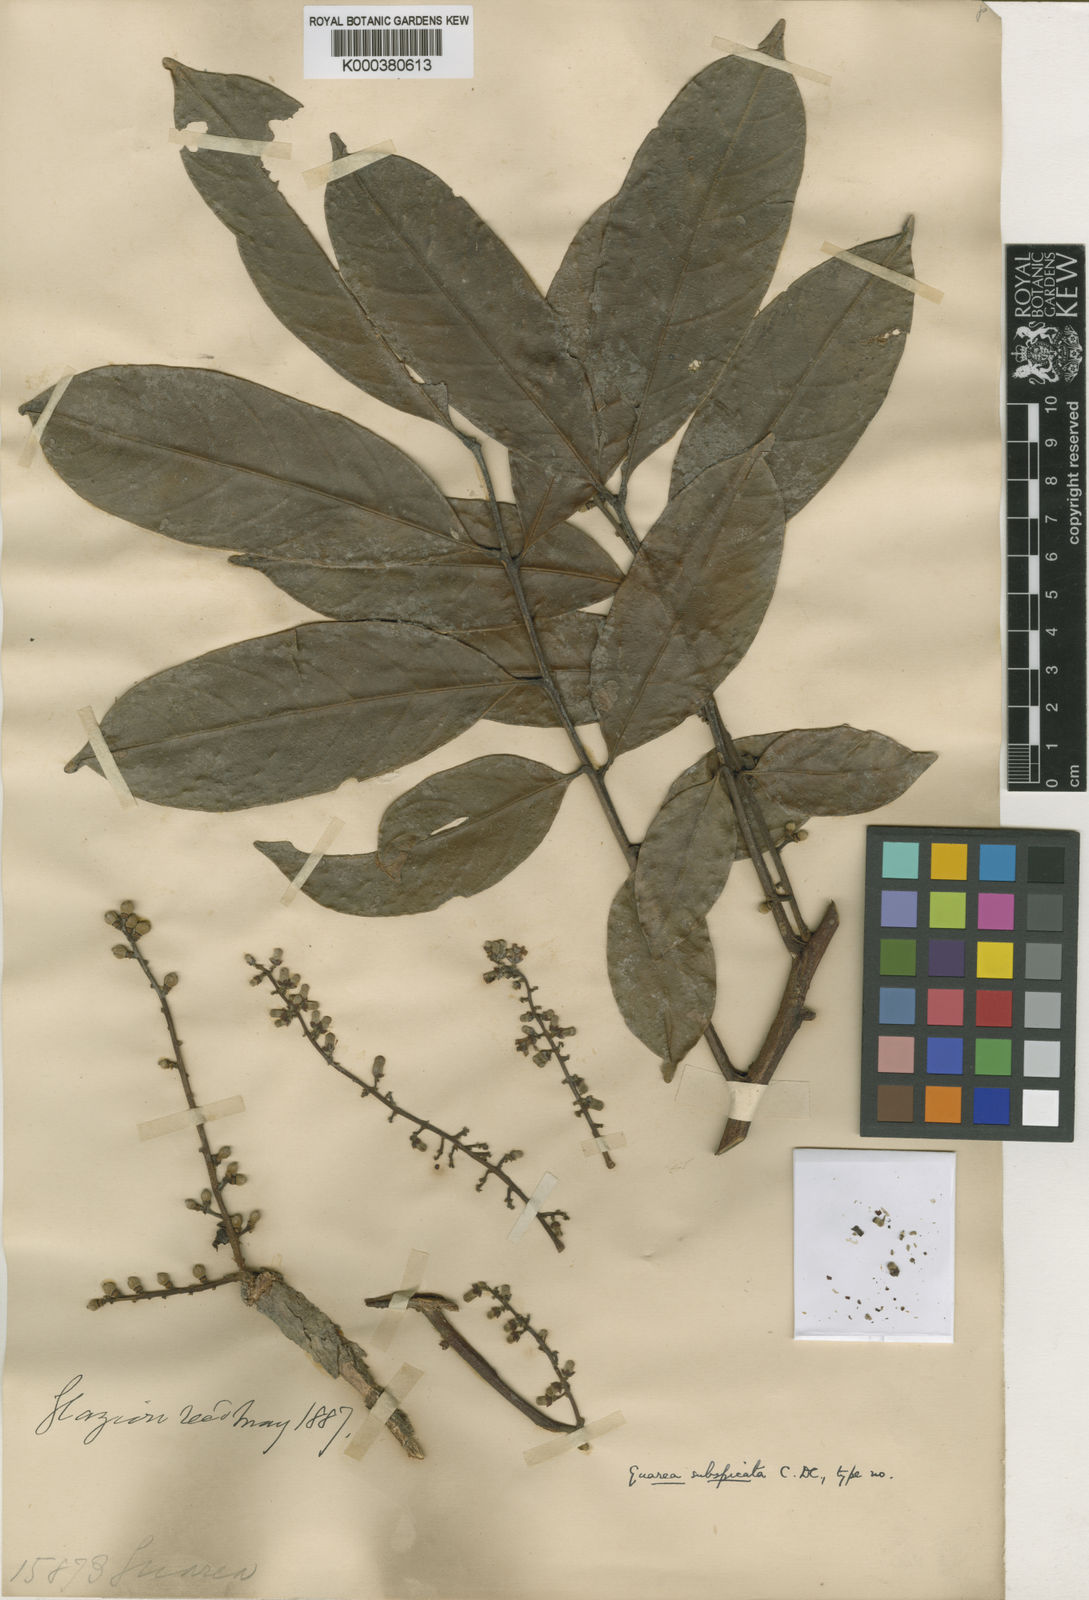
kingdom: Plantae
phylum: Tracheophyta
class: Magnoliopsida
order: Sapindales
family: Meliaceae
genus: Guarea
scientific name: Guarea macrophylla
